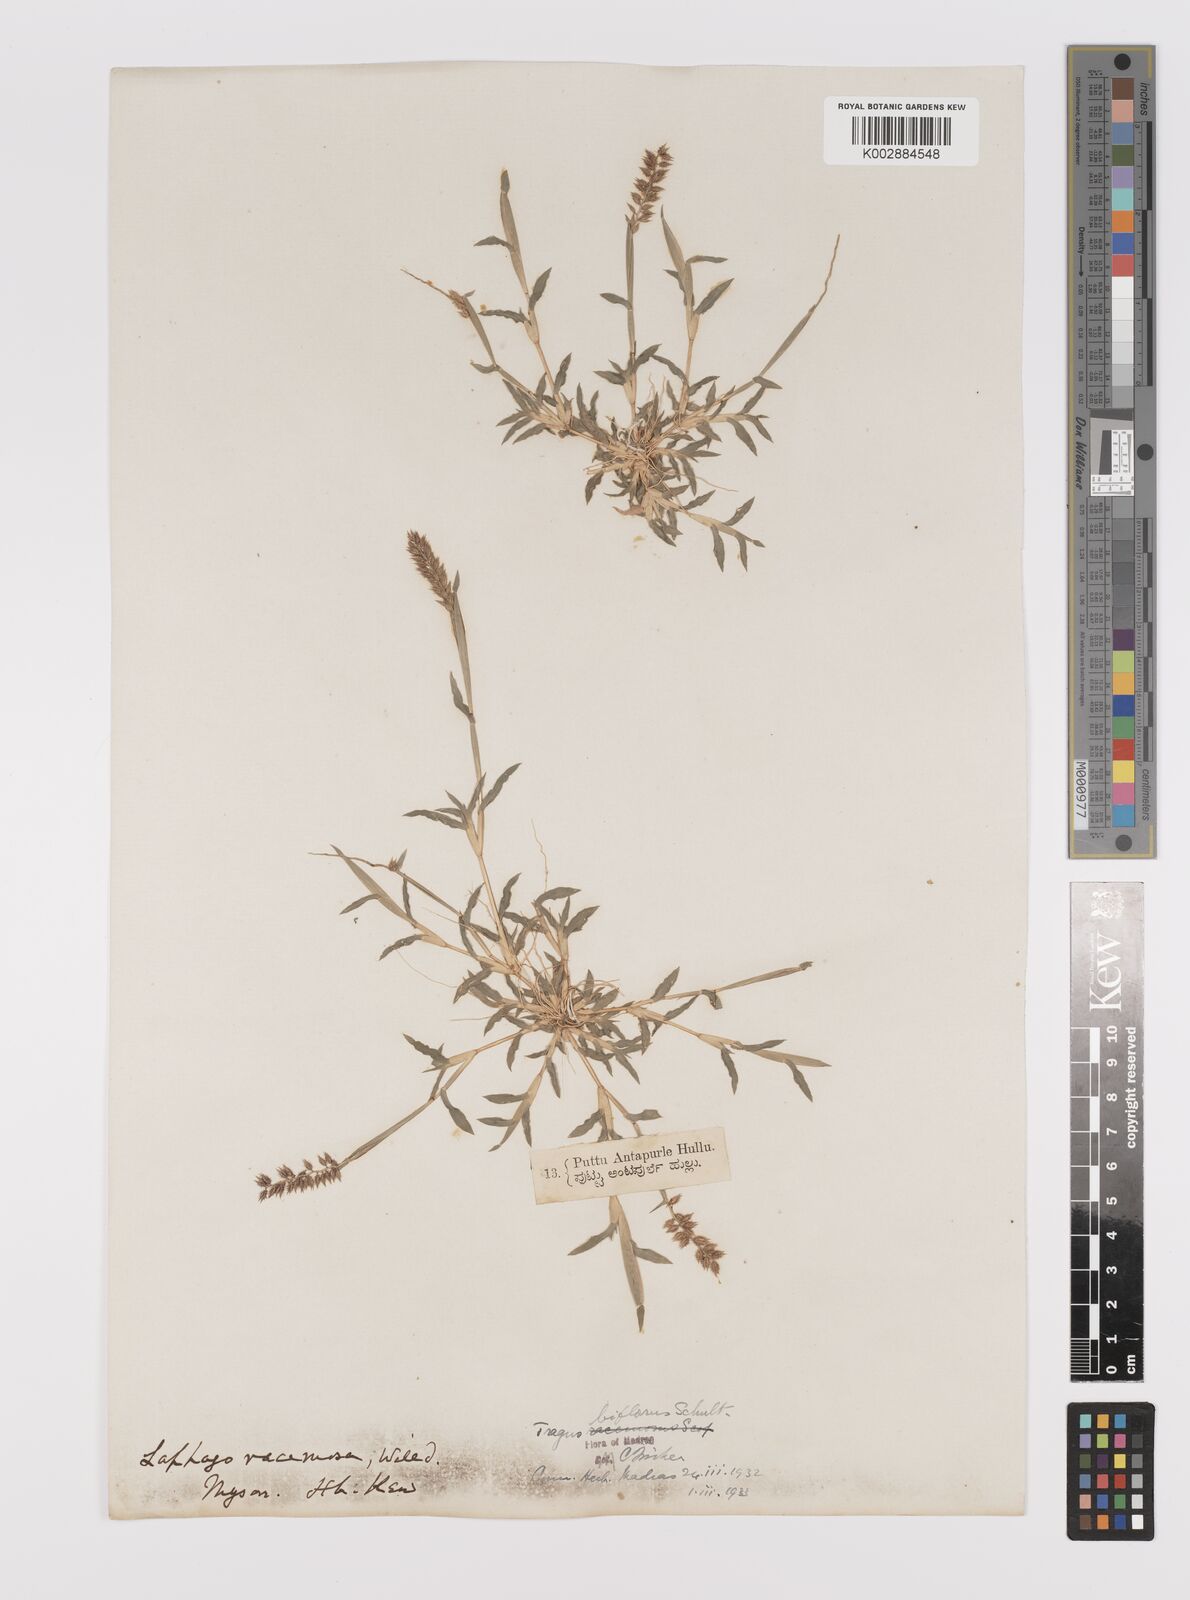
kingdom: Plantae
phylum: Tracheophyta
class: Liliopsida
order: Poales
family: Poaceae
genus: Tragus
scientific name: Tragus mongolorum
